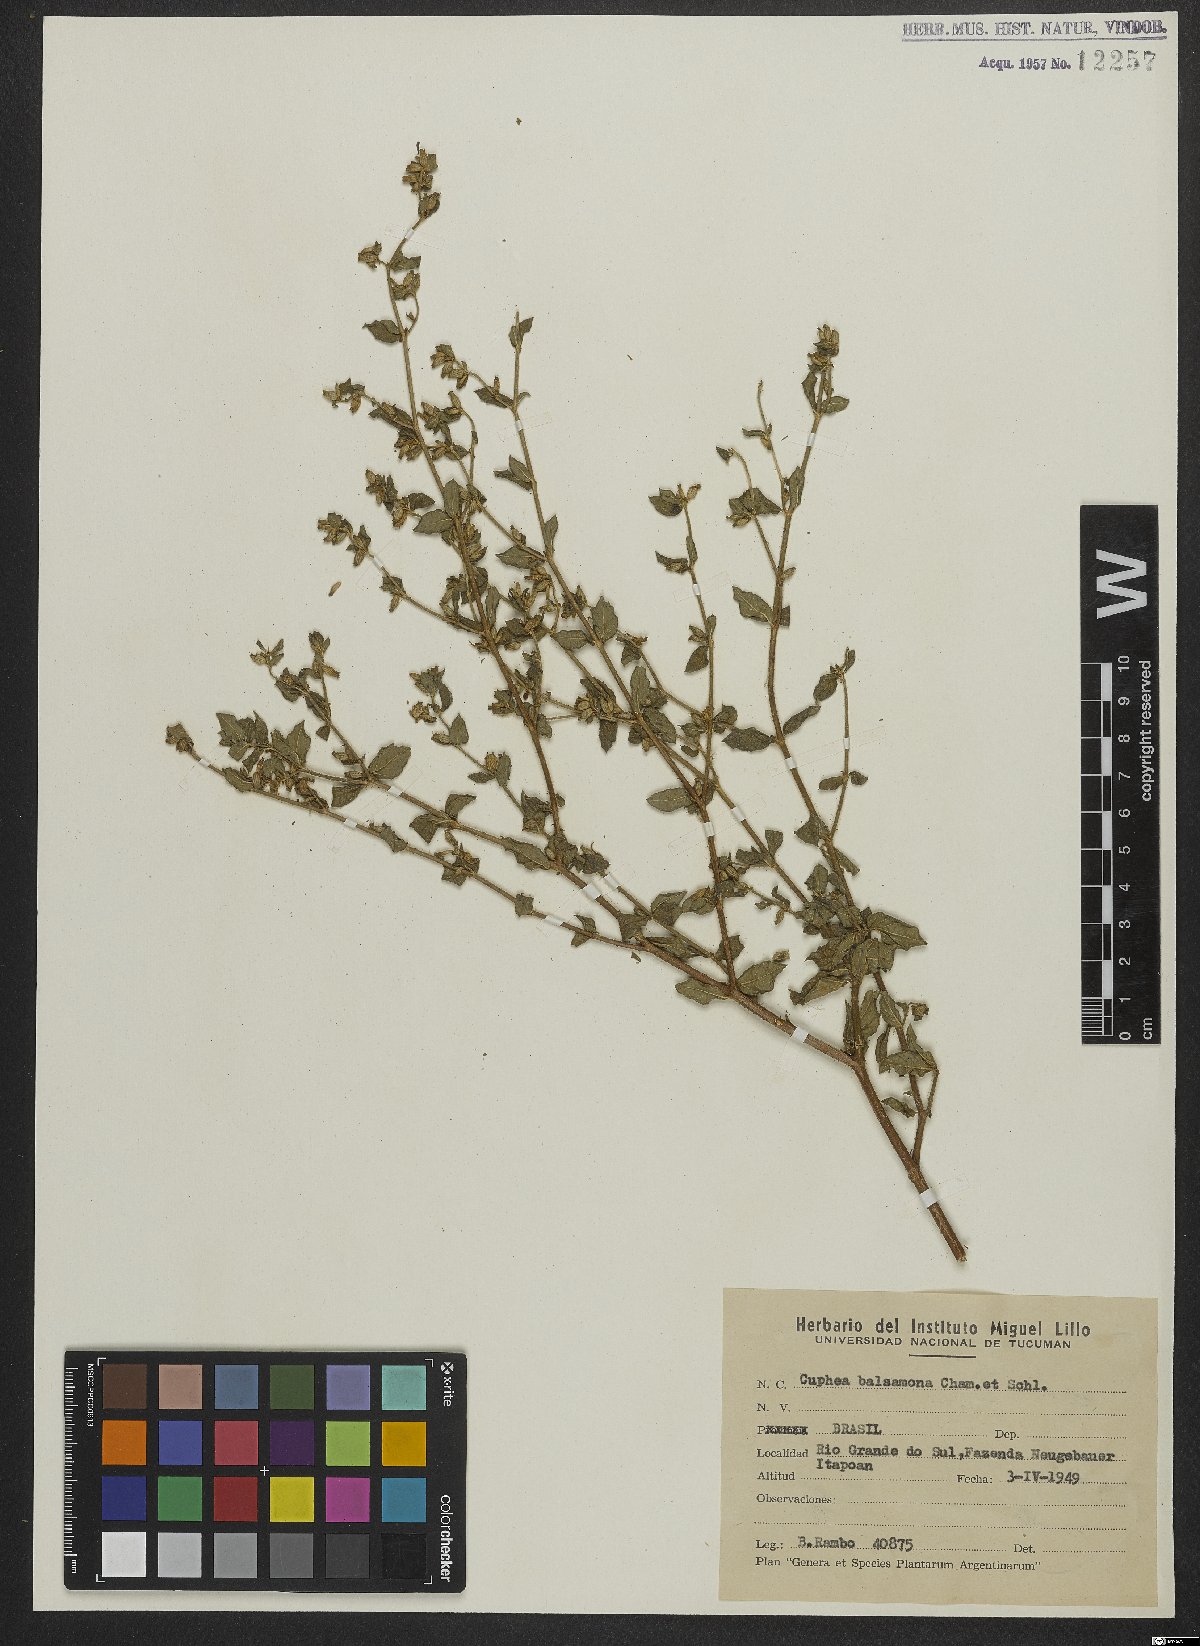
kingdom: Plantae
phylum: Tracheophyta
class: Magnoliopsida
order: Myrtales
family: Lythraceae
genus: Cuphea
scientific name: Cuphea carthagenensis
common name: Colombian waxweed
